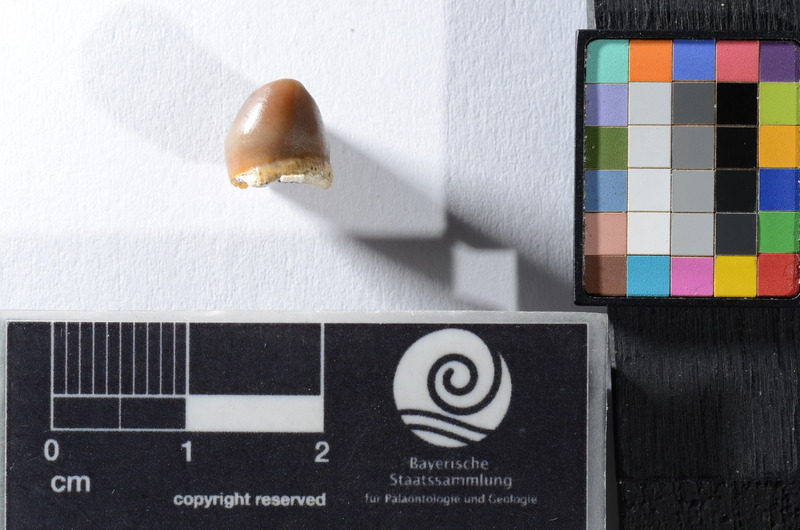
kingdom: Animalia
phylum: Chordata
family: Pycnodontidae
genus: Anomoeodus
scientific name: Anomoeodus
